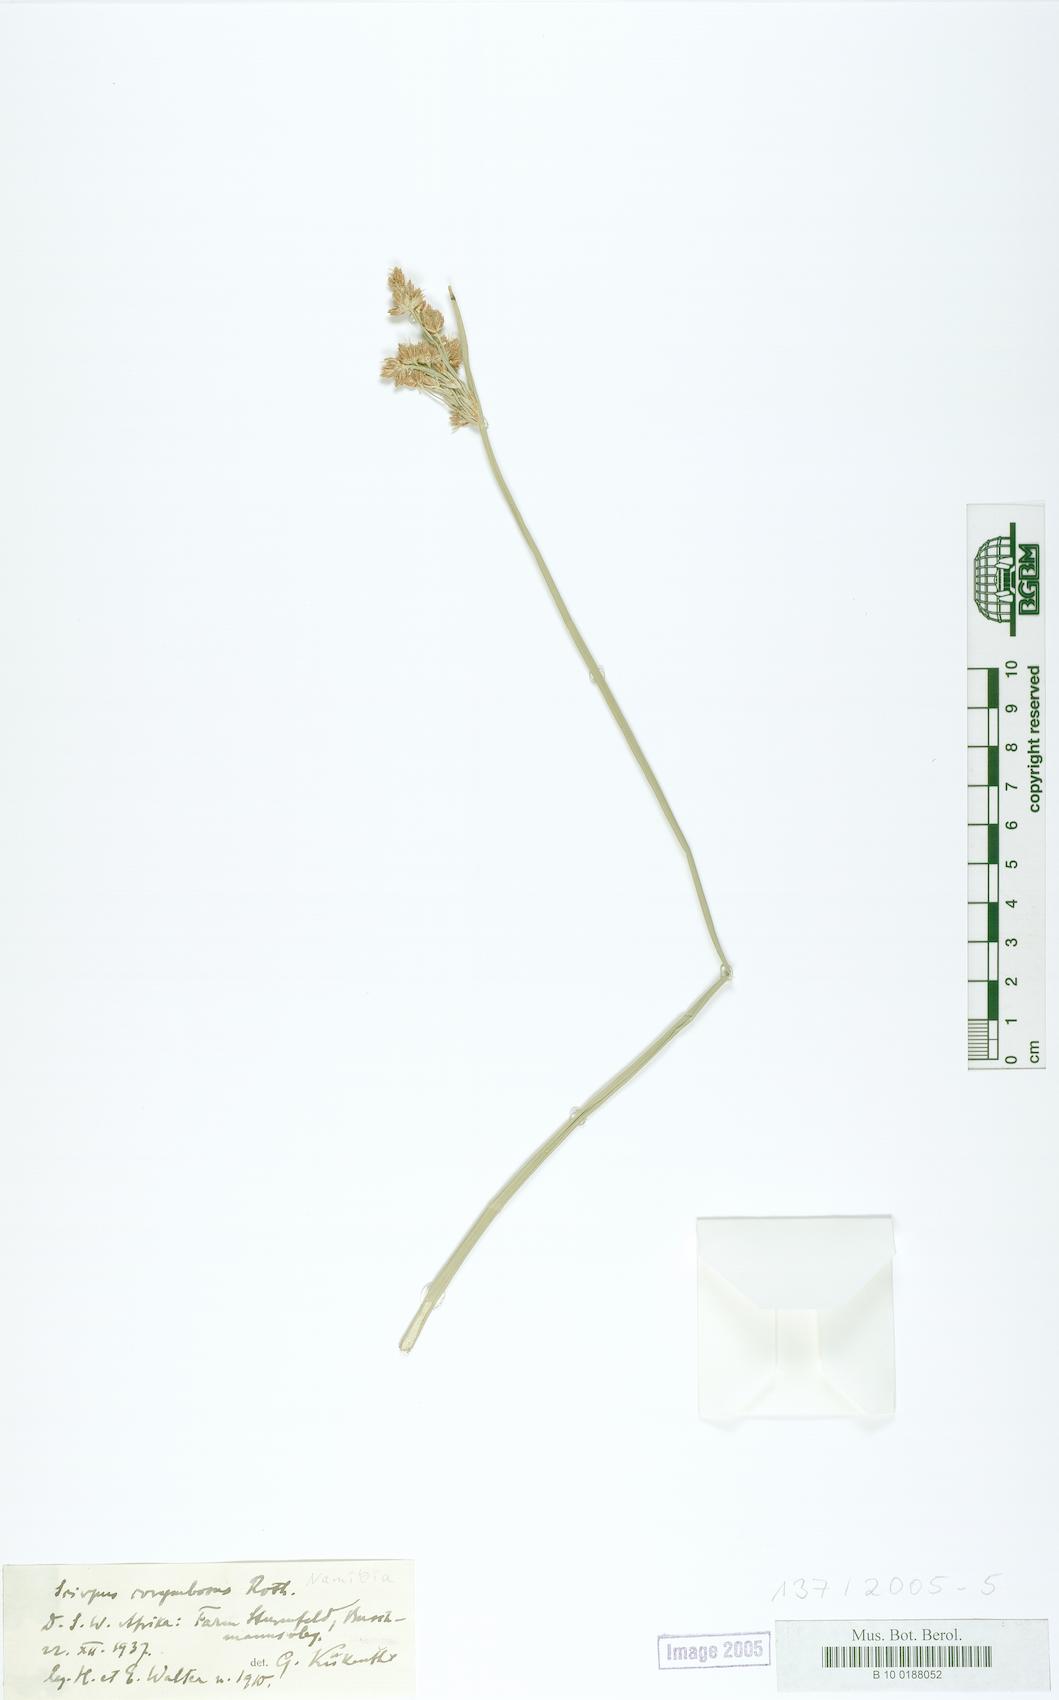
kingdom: Plantae
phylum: Tracheophyta
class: Liliopsida
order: Poales
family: Cyperaceae
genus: Scirpus
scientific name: Scirpus corymbosus
